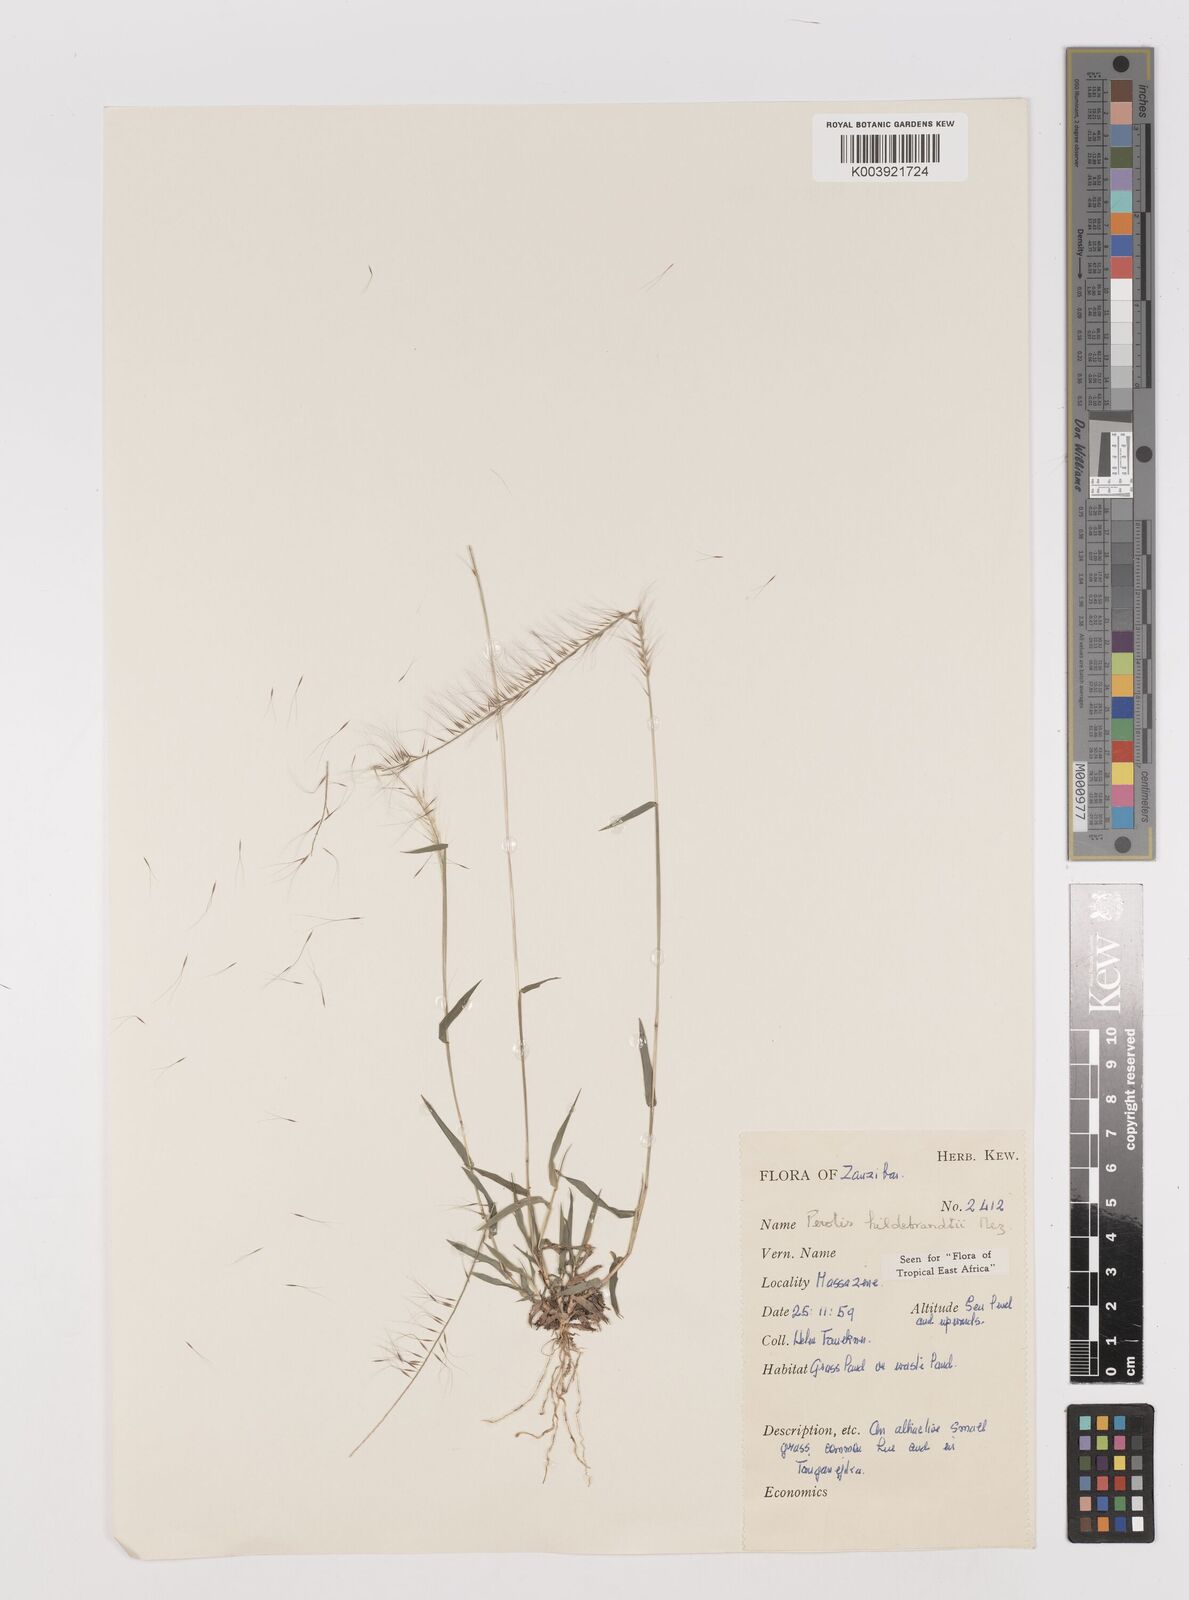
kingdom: Plantae
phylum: Tracheophyta
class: Liliopsida
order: Poales
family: Poaceae
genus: Perotis
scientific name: Perotis hildebrandtii
